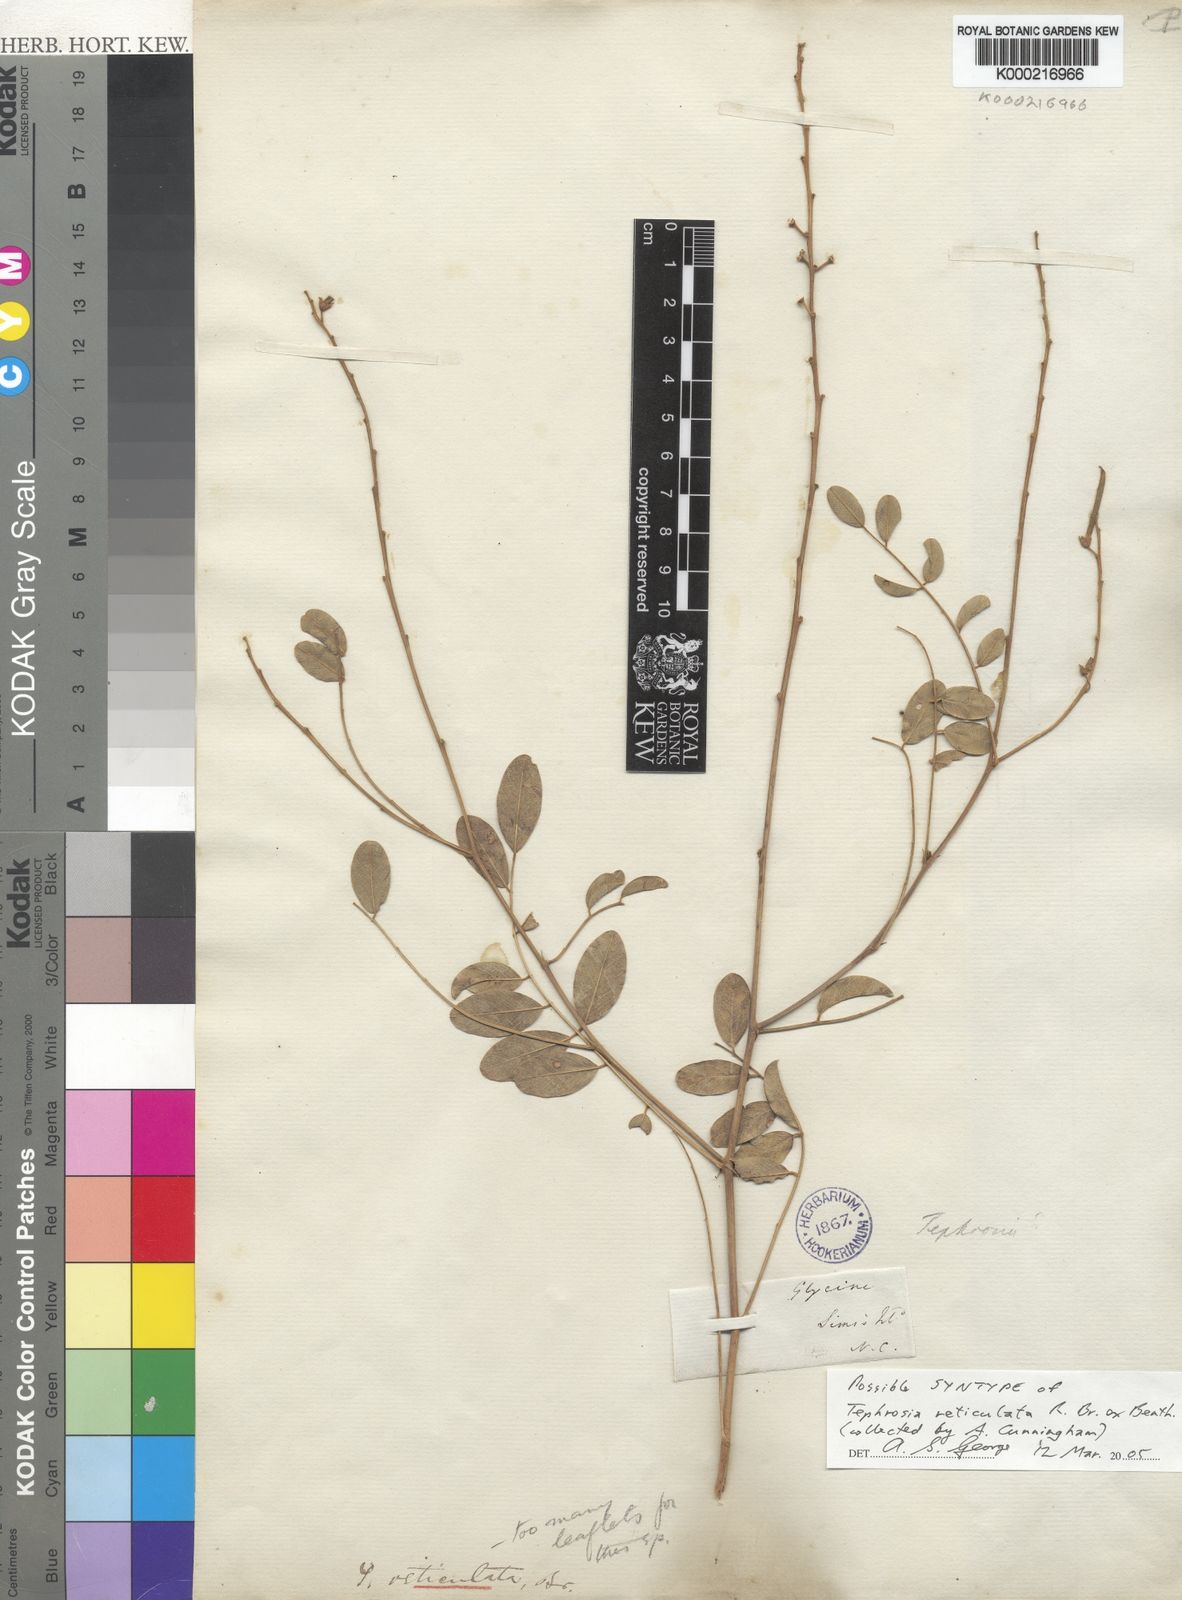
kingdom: Plantae
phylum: Tracheophyta
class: Magnoliopsida
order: Fabales
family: Fabaceae
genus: Tephrosia
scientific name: Tephrosia reticulata
